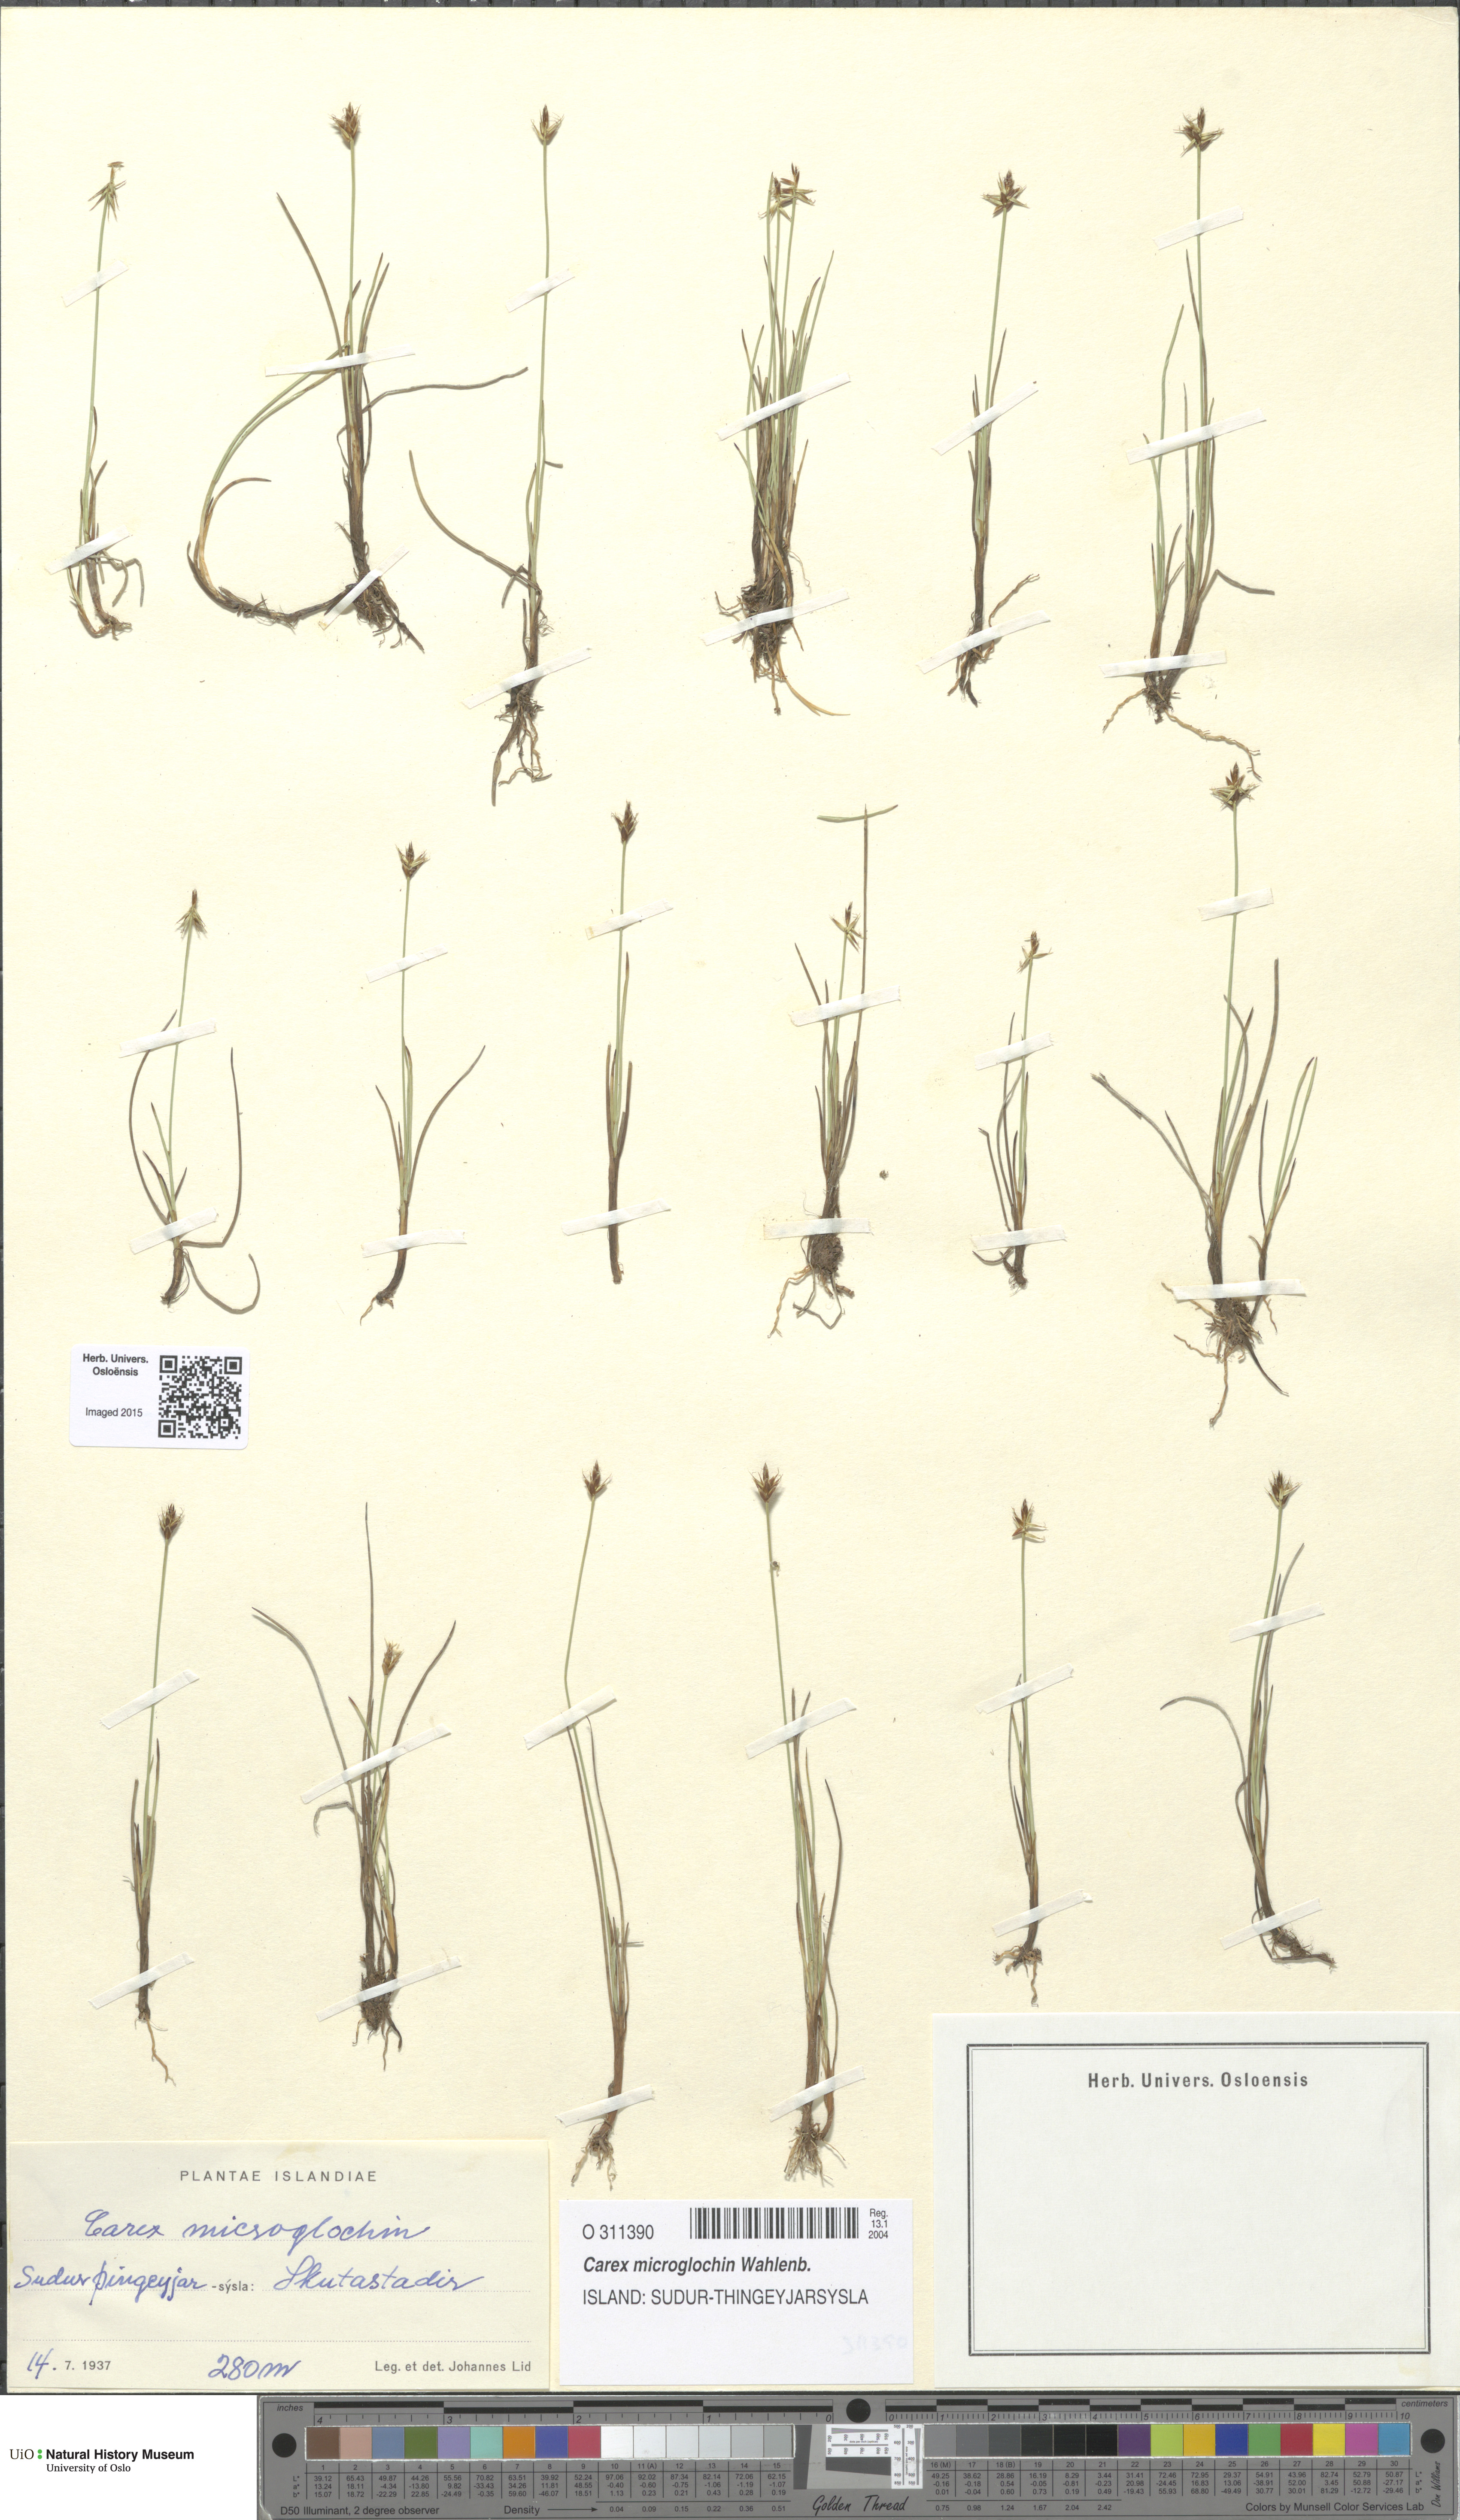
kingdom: Plantae
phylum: Tracheophyta
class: Liliopsida
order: Poales
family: Cyperaceae
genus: Carex
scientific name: Carex microglochin
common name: Bristle sedge
